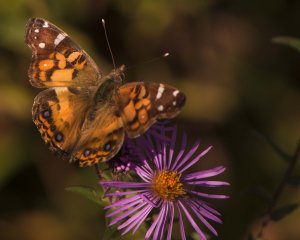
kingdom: Animalia
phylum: Arthropoda
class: Insecta
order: Lepidoptera
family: Nymphalidae
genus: Vanessa
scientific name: Vanessa virginiensis
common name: American Lady
